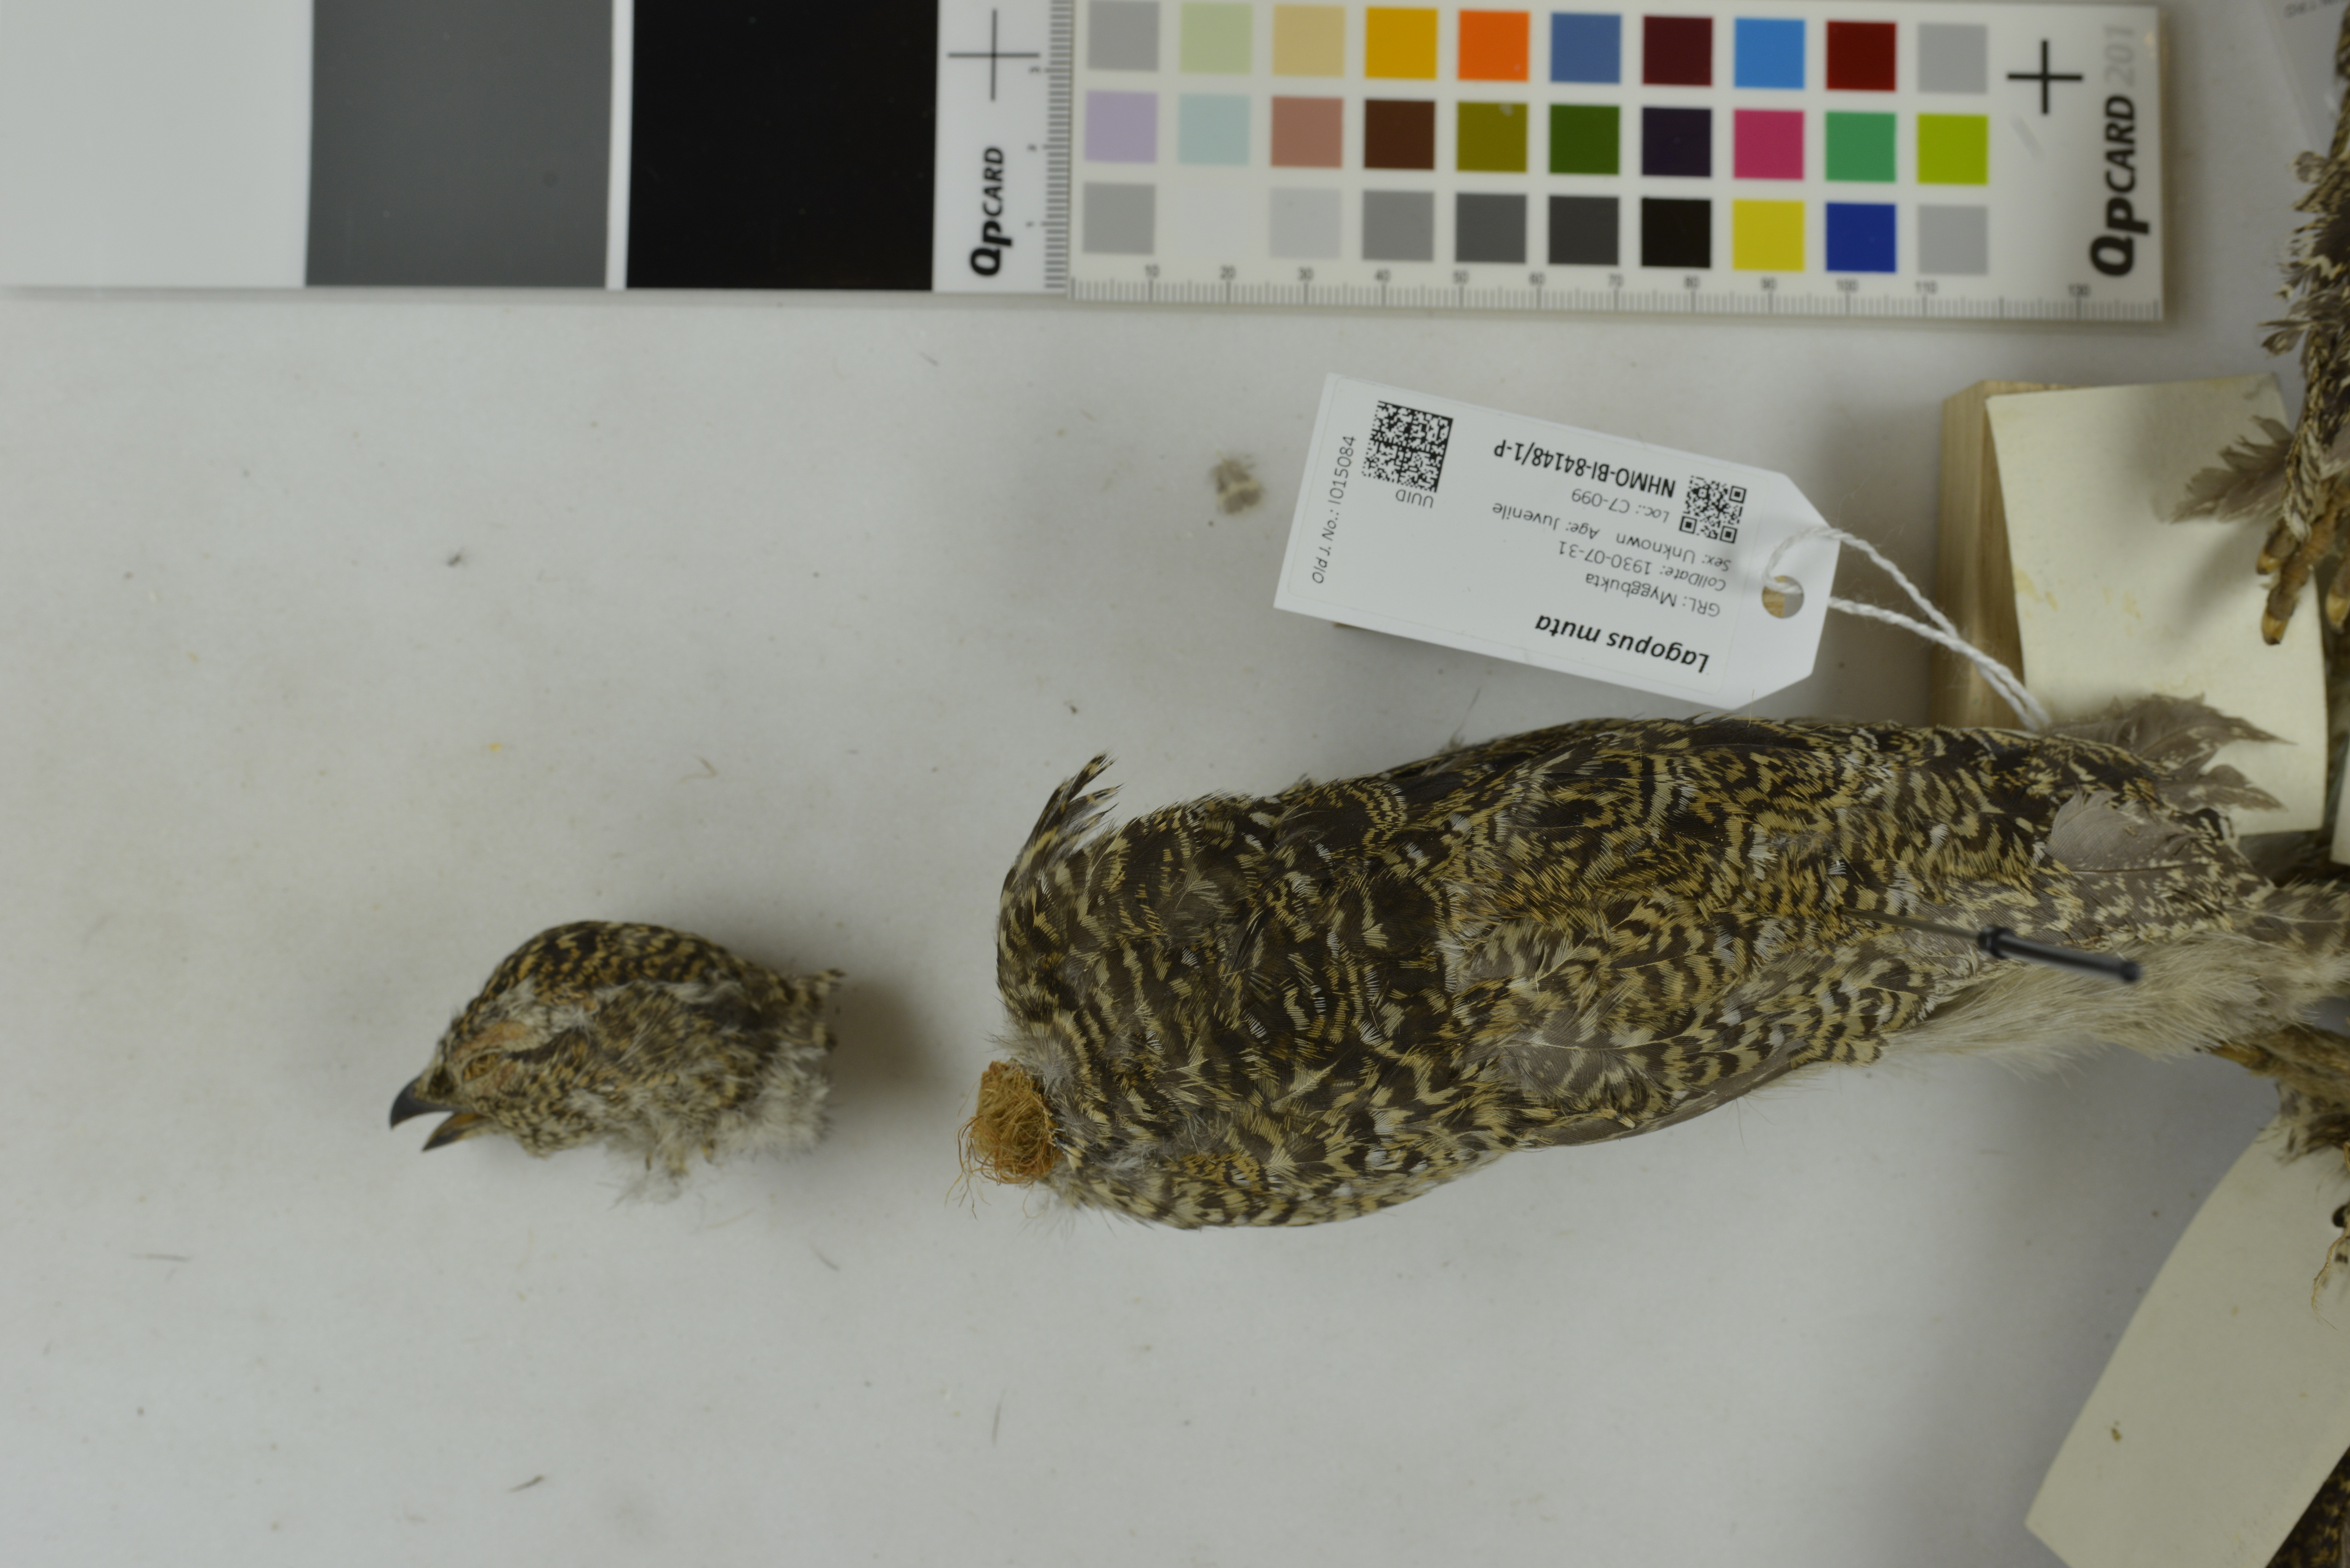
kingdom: Animalia
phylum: Chordata
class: Aves
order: Galliformes
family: Phasianidae
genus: Lagopus
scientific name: Lagopus muta
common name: Rock ptarmigan
